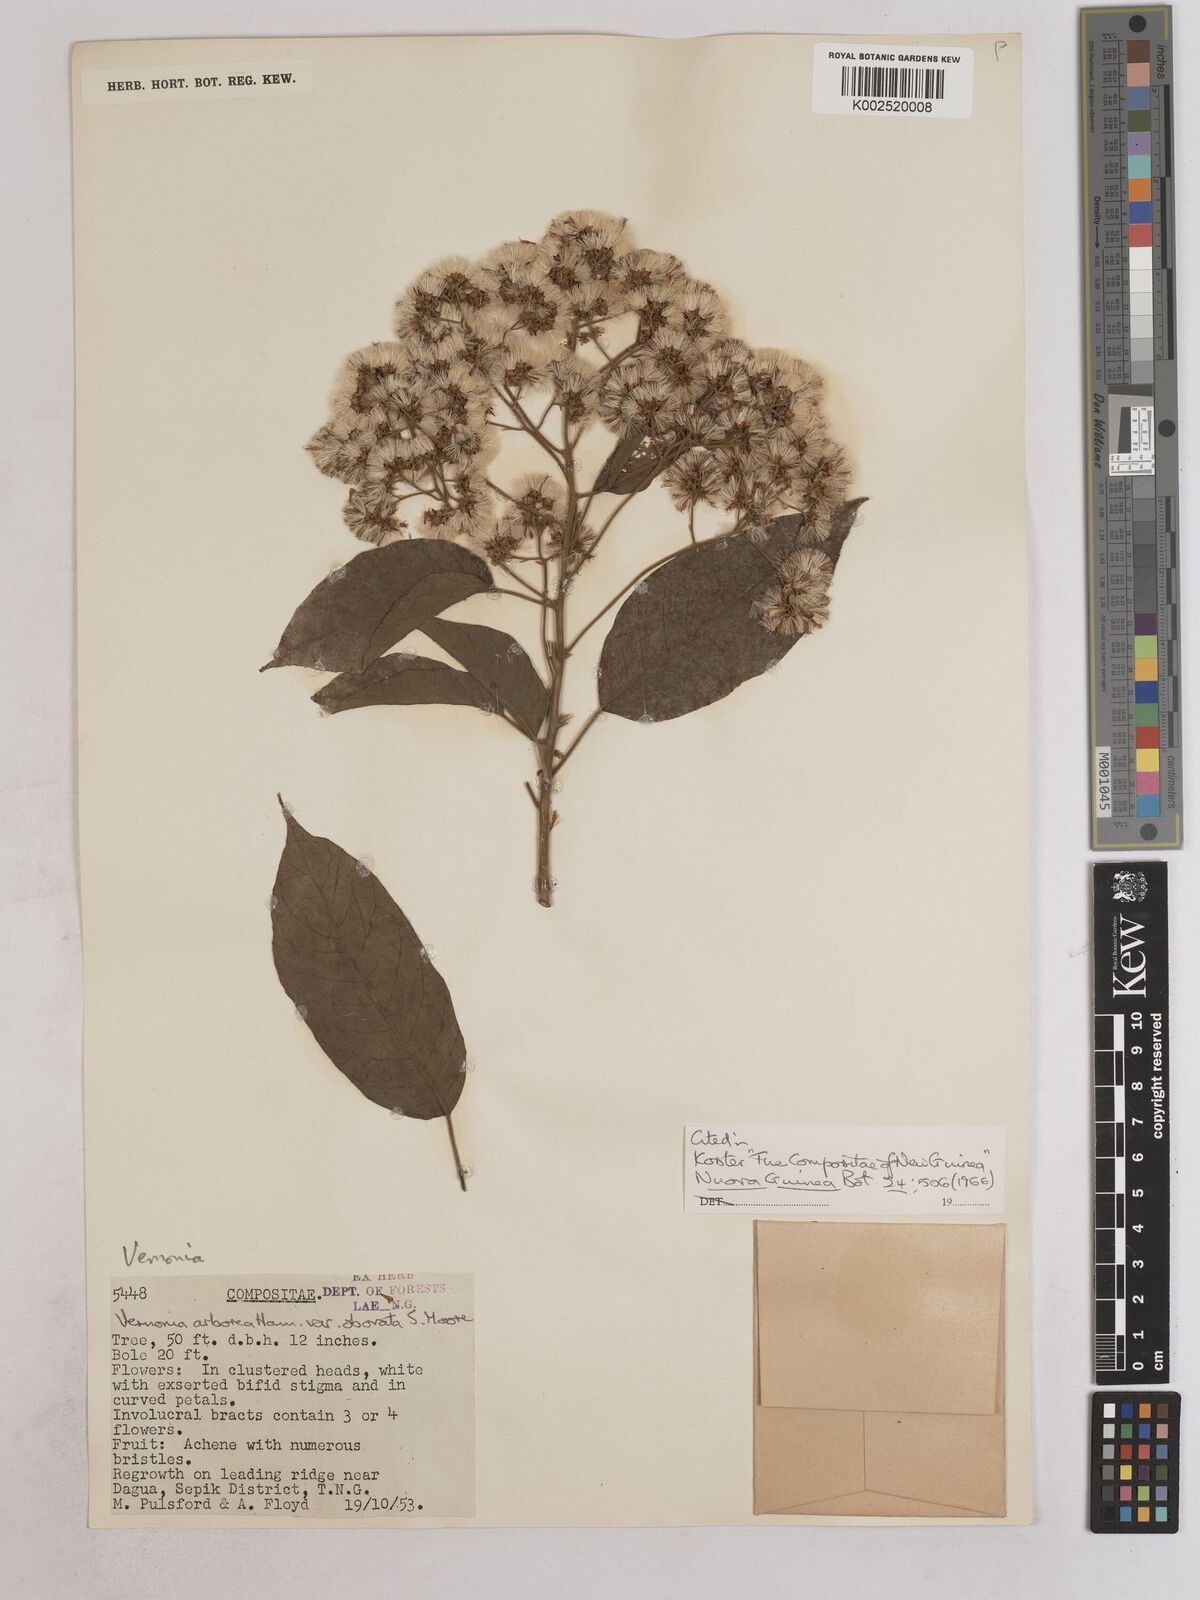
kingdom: Plantae
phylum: Tracheophyta
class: Magnoliopsida
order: Asterales
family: Asteraceae
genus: Strobocalyx
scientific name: Strobocalyx arborea
